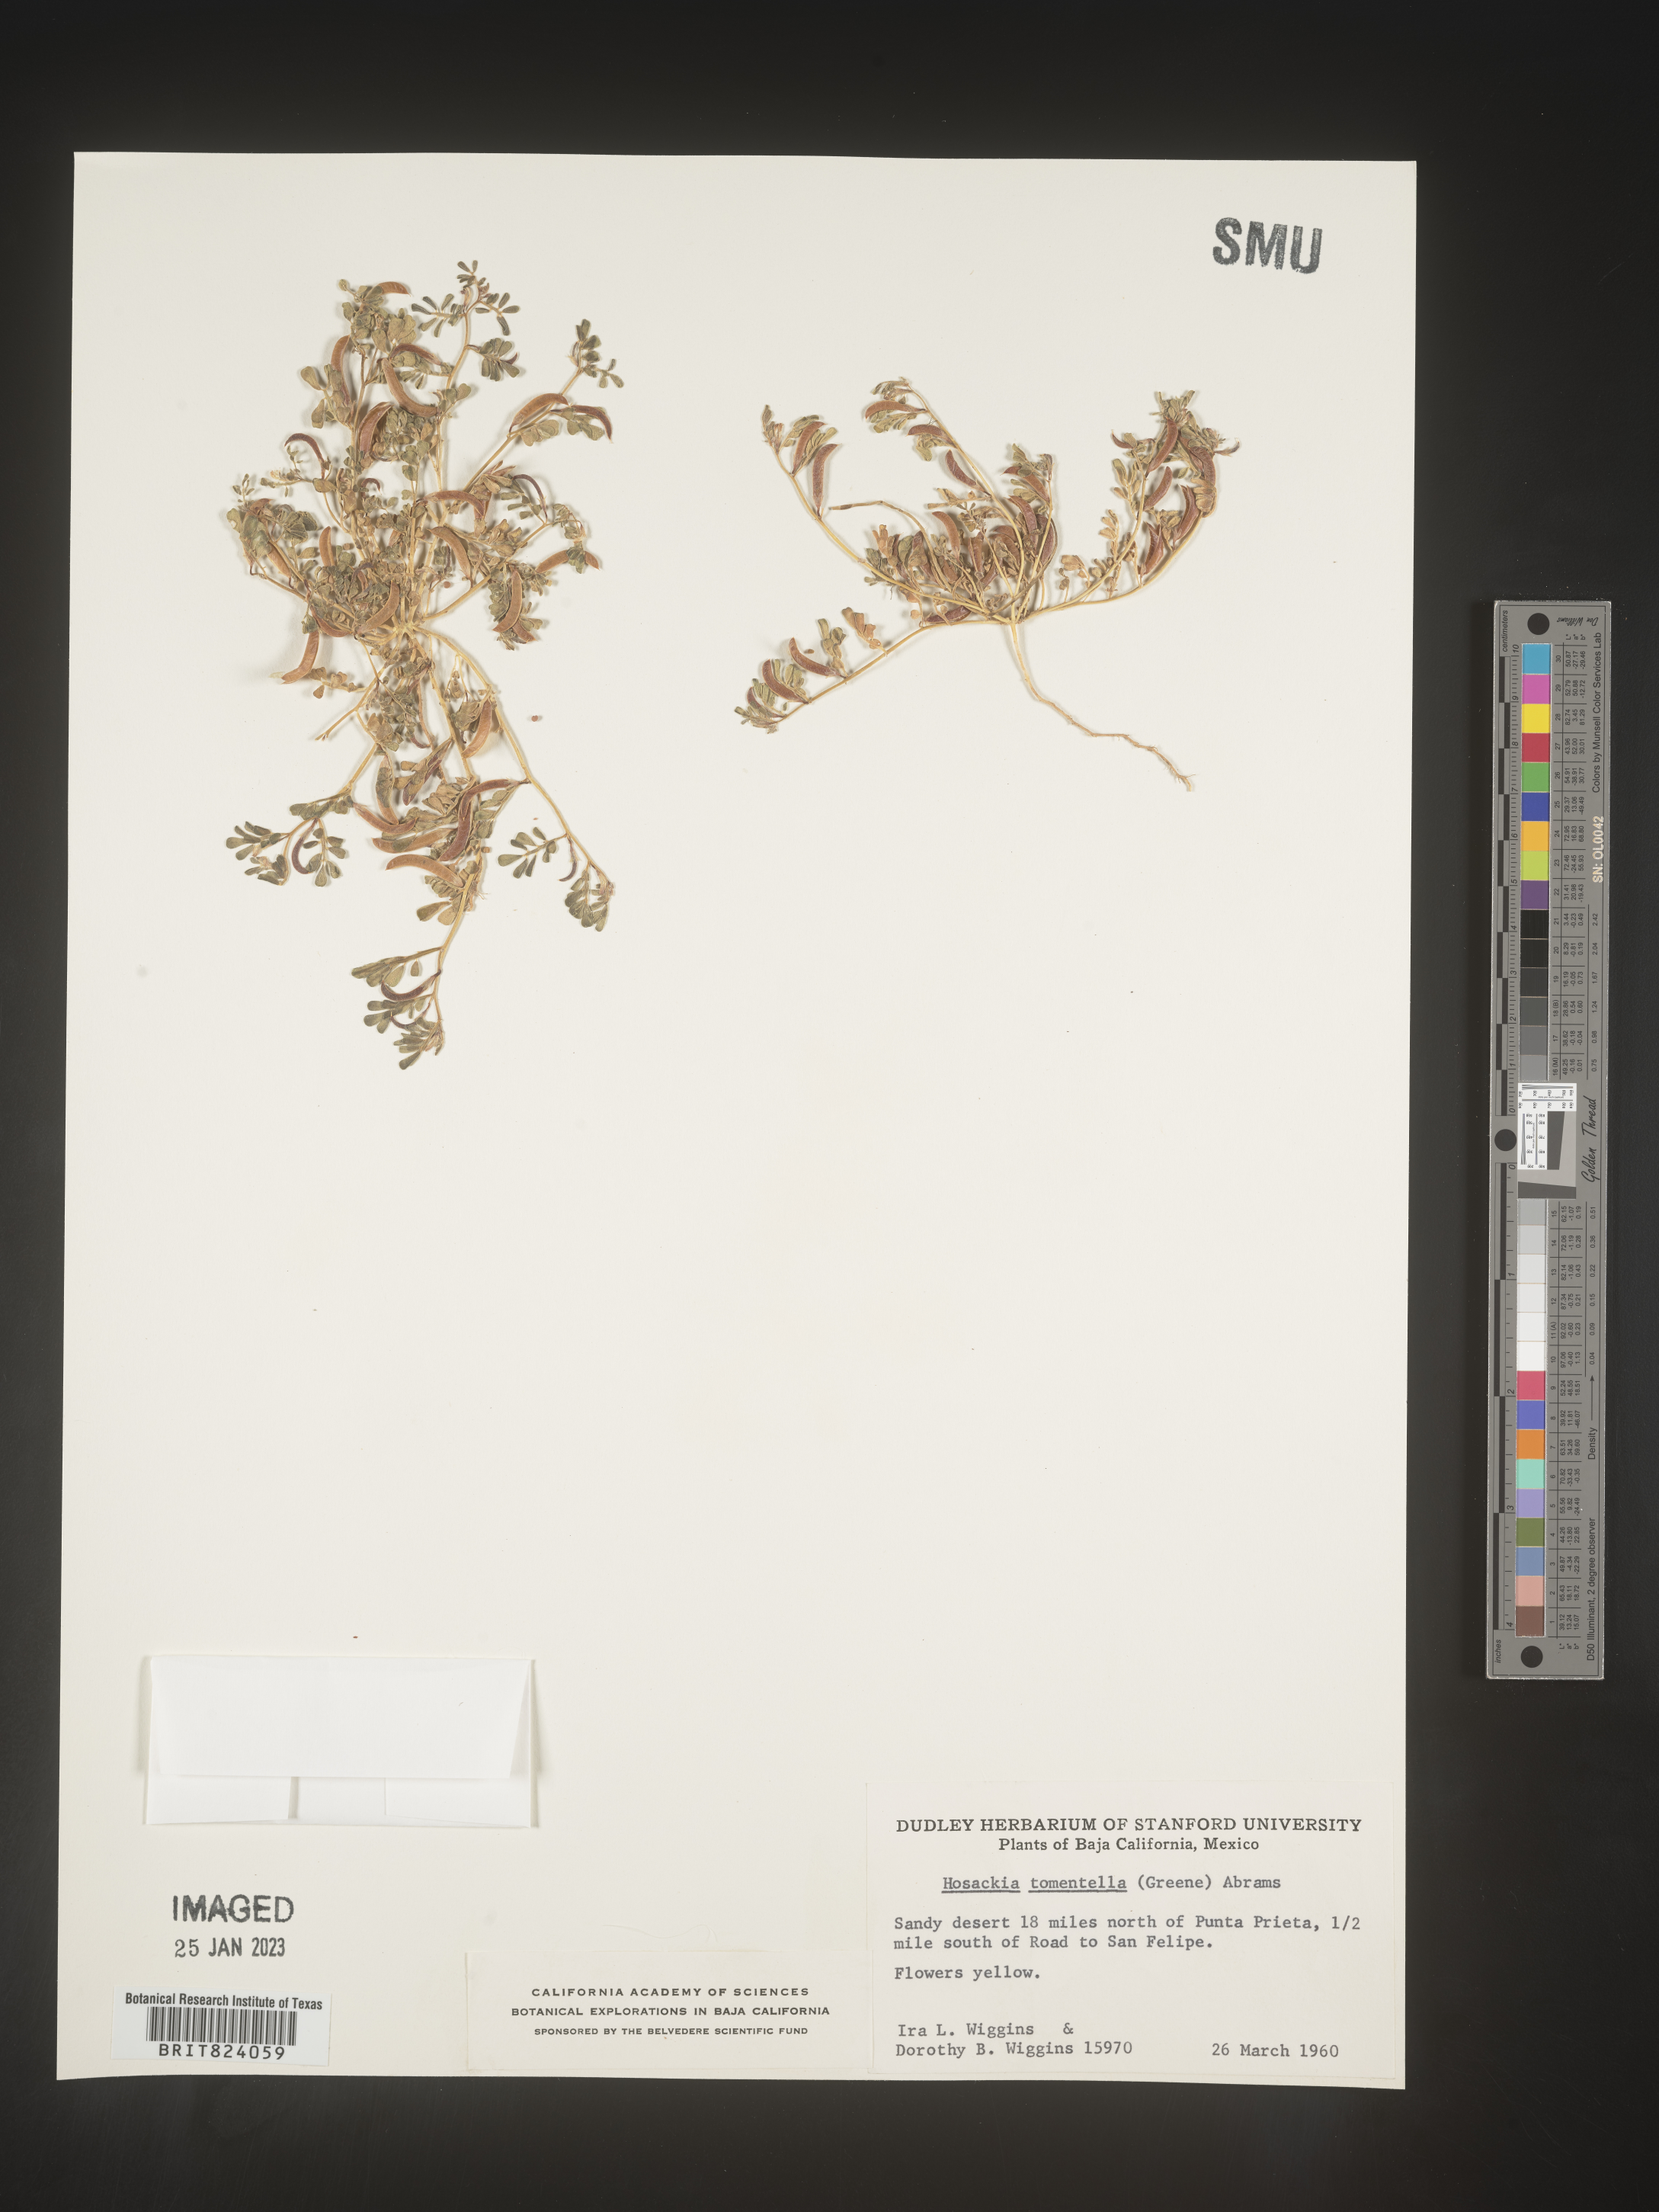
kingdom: Plantae
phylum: Tracheophyta
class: Magnoliopsida
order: Fabales
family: Fabaceae
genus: Lotus
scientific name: Lotus
